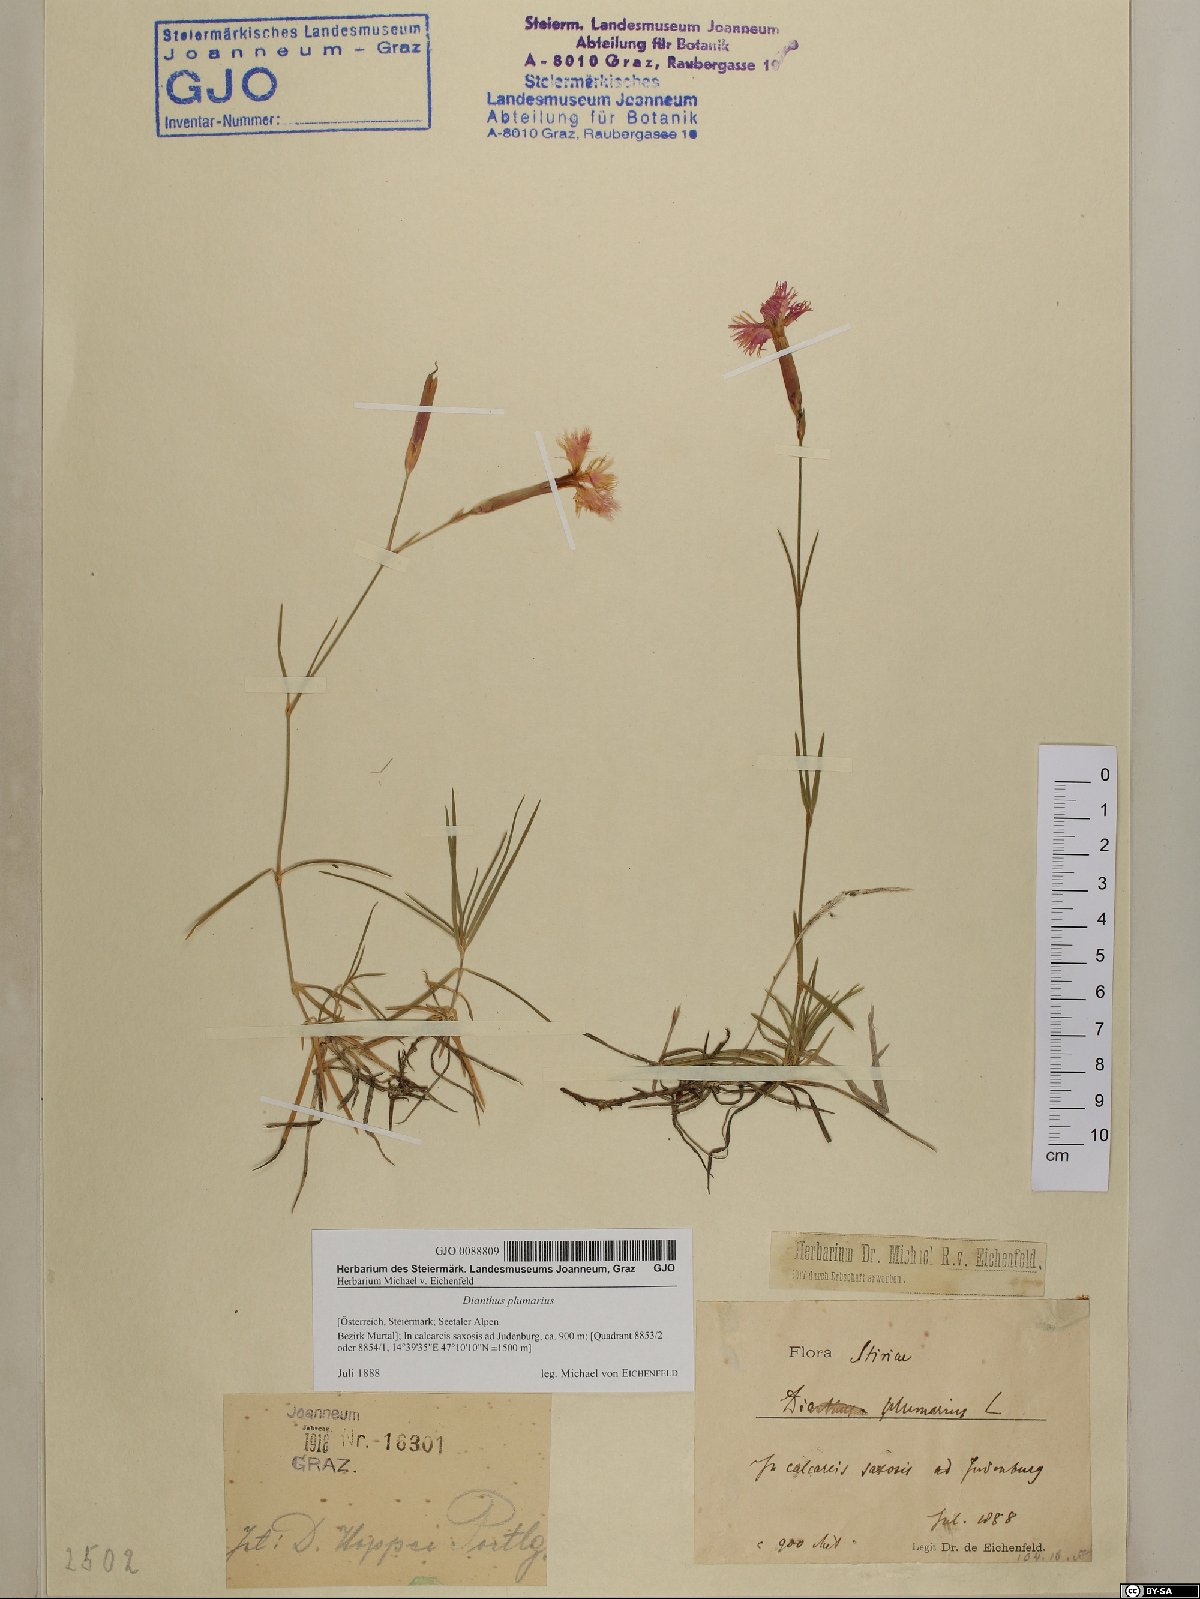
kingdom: Plantae
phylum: Tracheophyta
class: Magnoliopsida
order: Caryophyllales
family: Caryophyllaceae
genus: Dianthus
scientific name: Dianthus plumarius
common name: Pink
